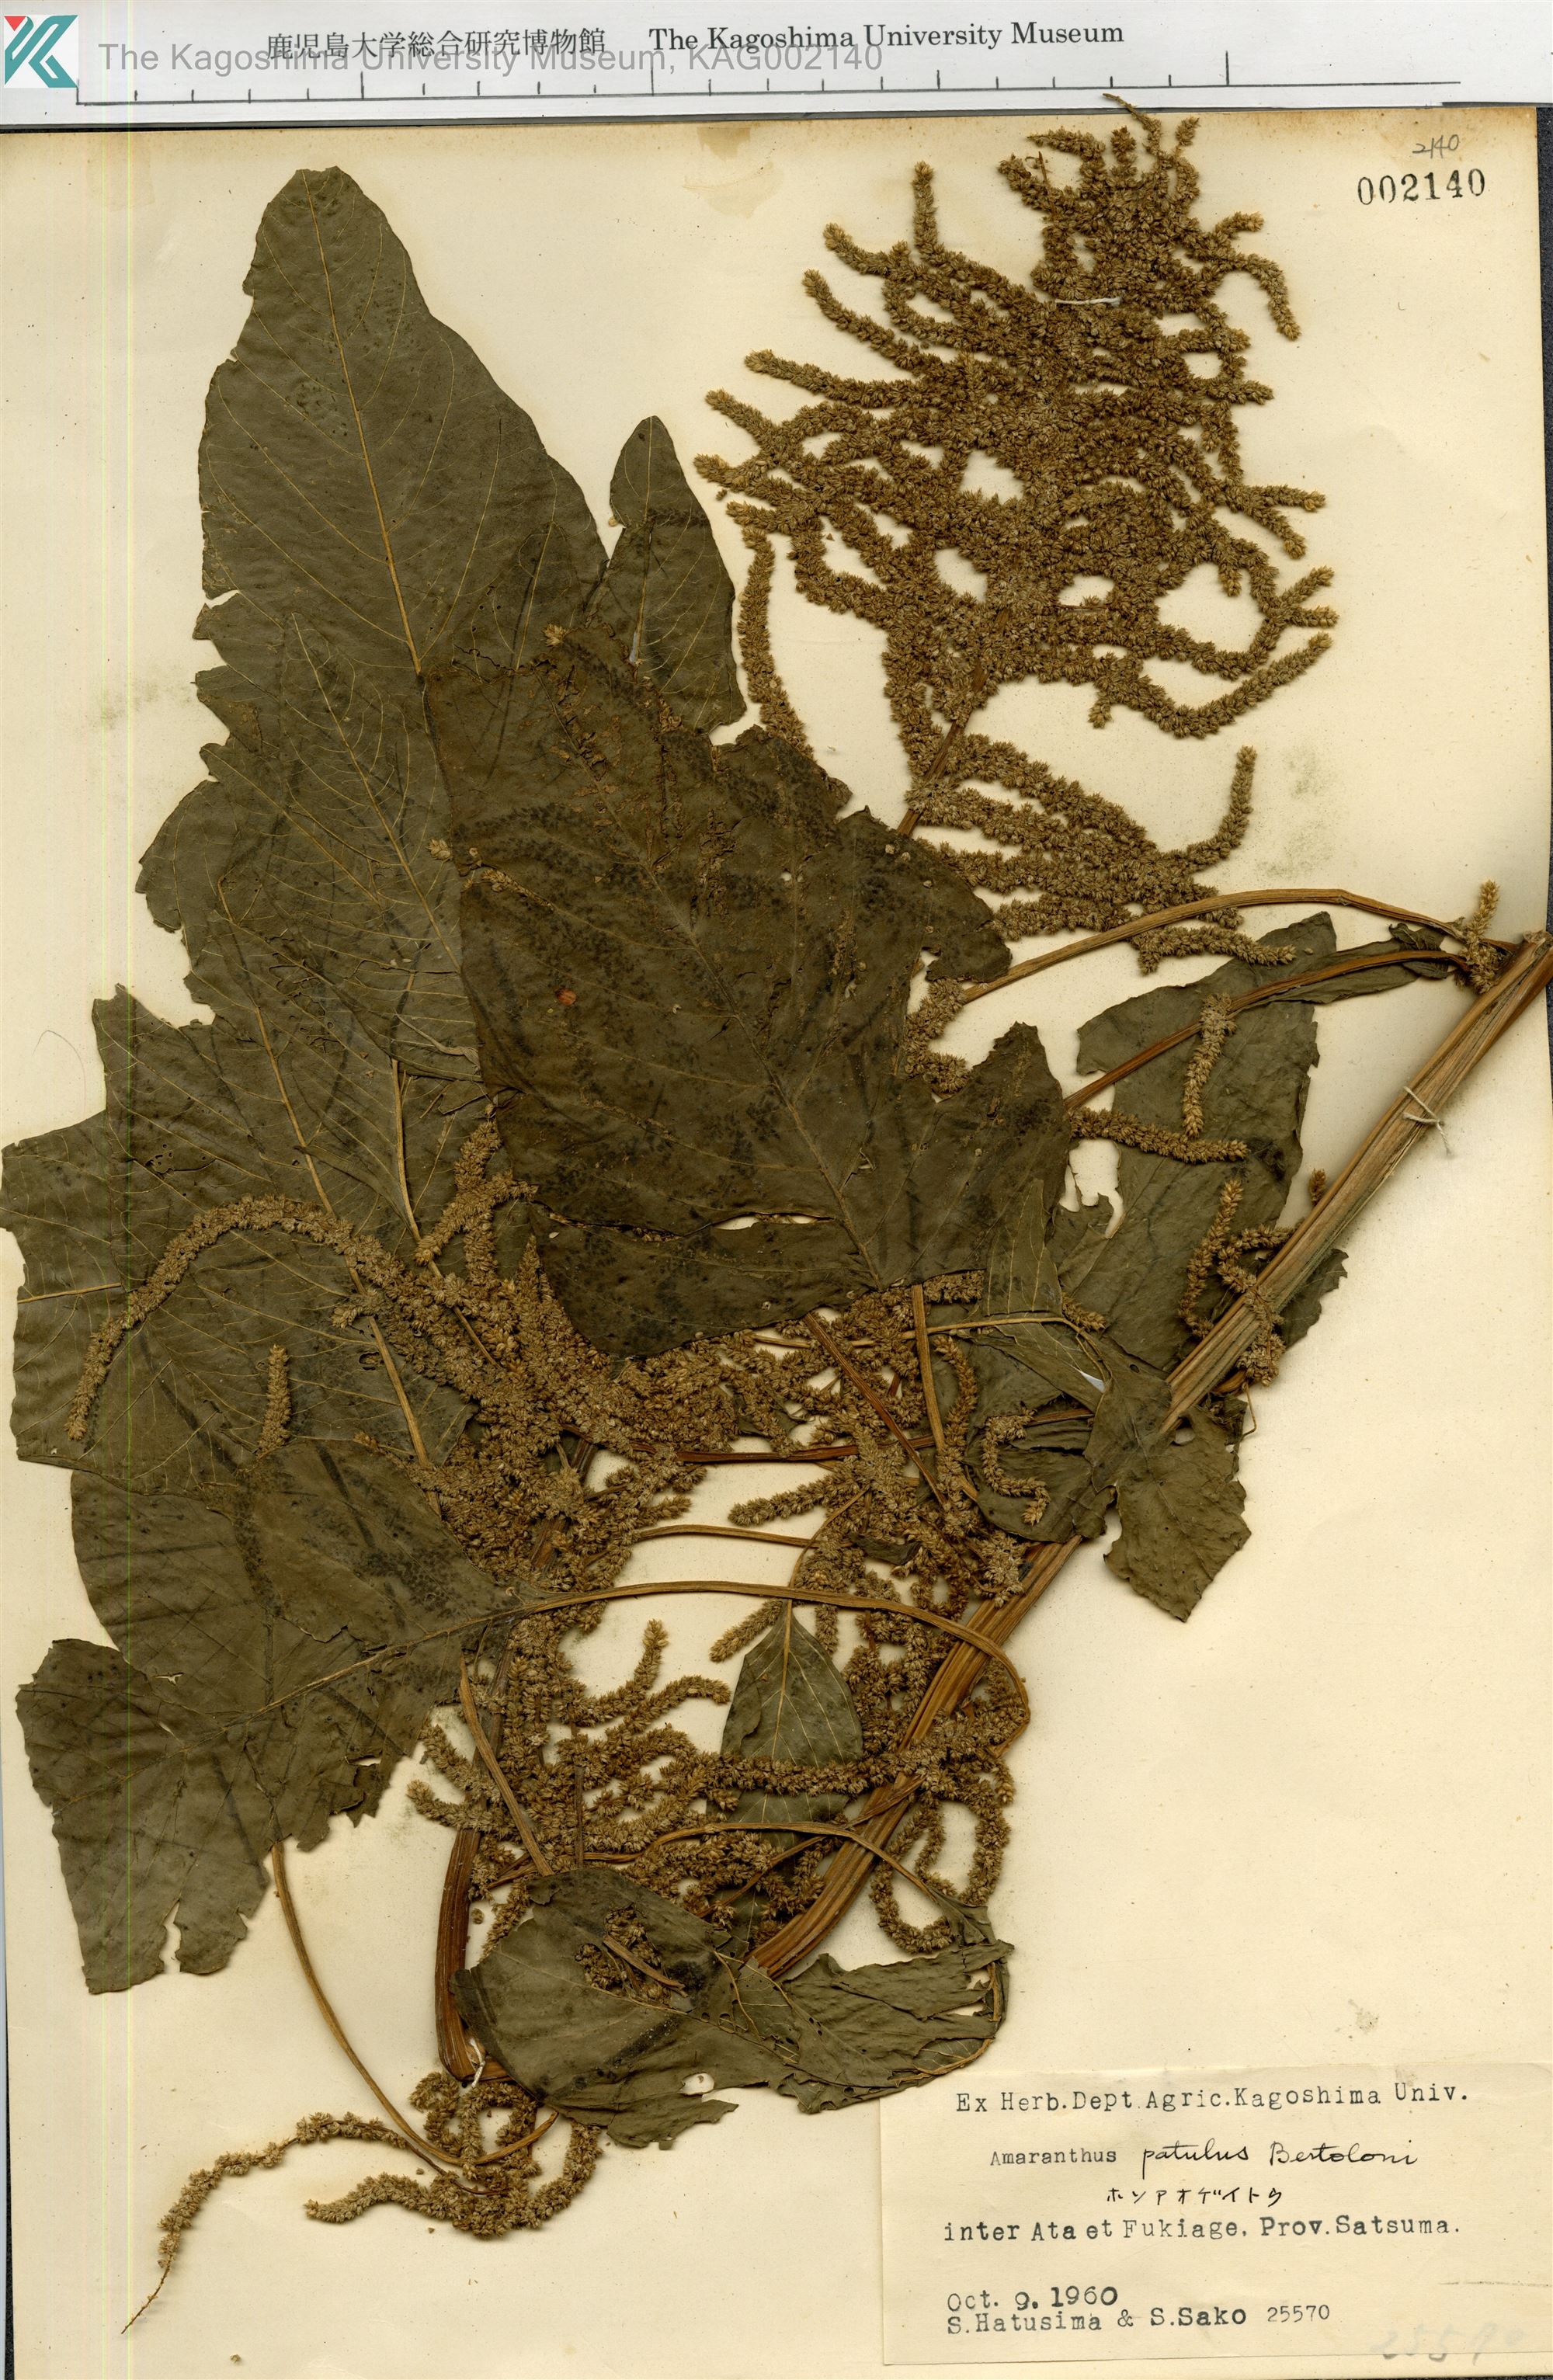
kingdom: Plantae
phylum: Tracheophyta
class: Magnoliopsida
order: Caryophyllales
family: Amaranthaceae
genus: Amaranthus
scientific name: Amaranthus hybridus
